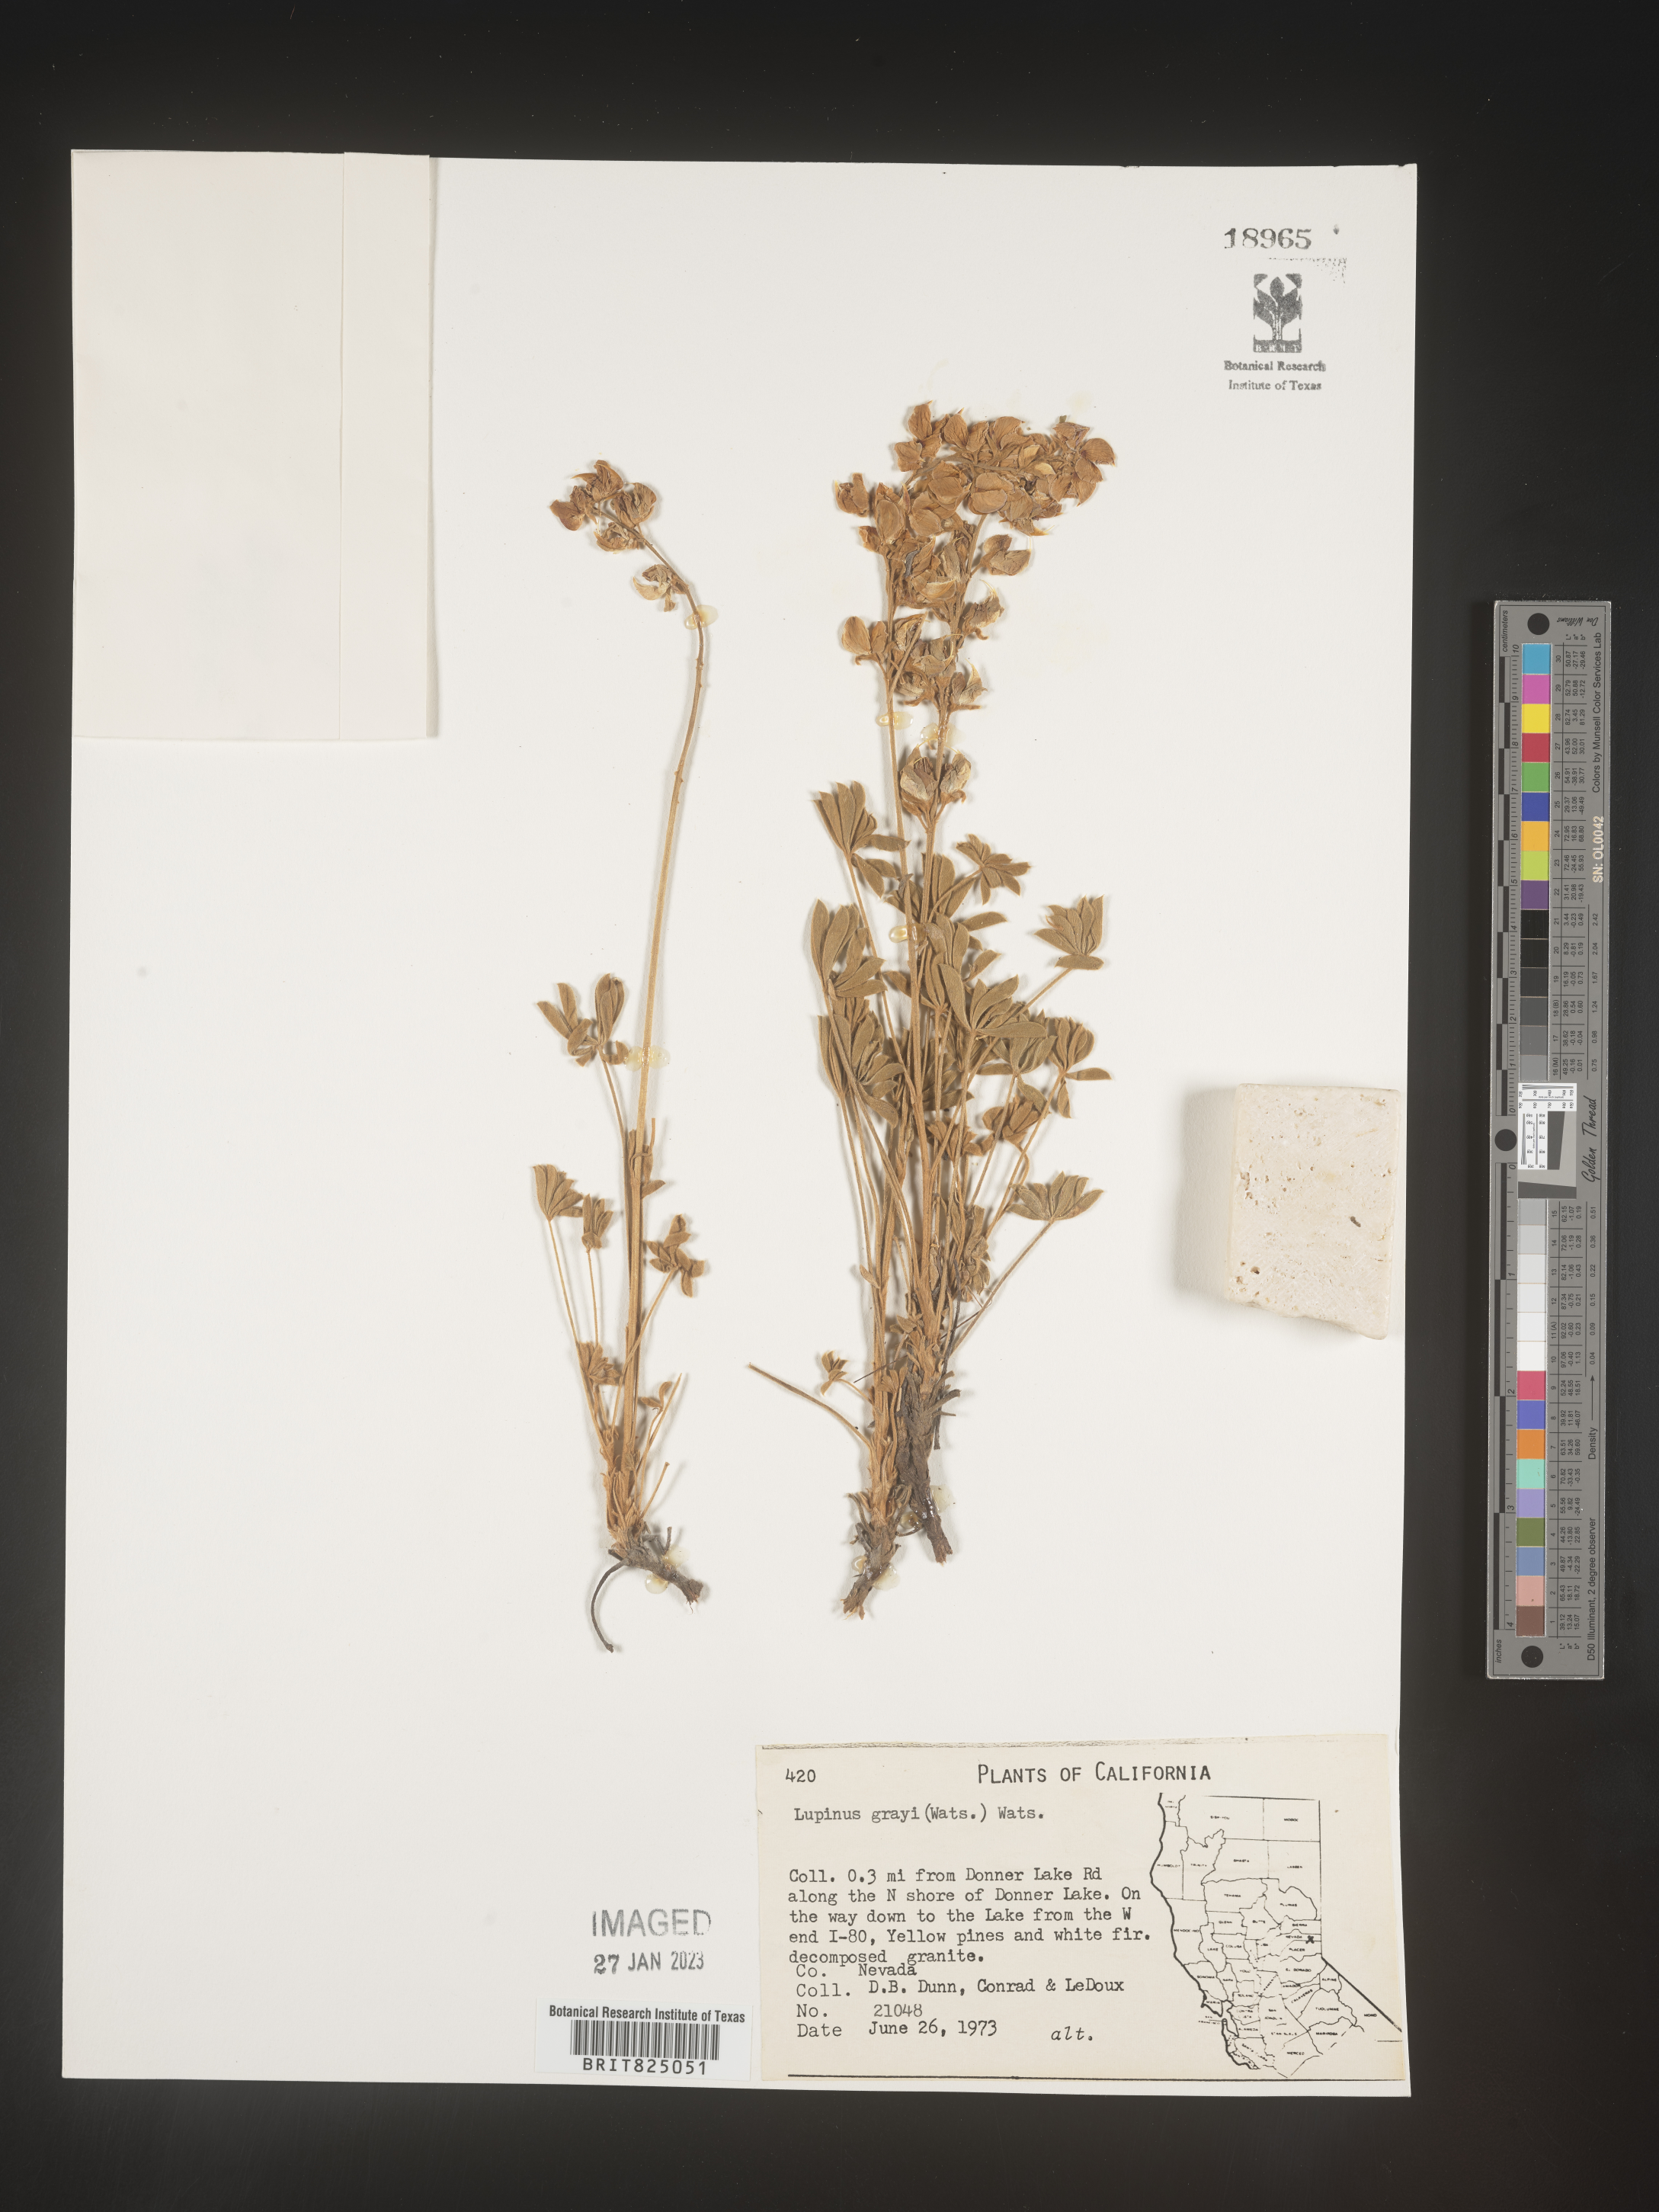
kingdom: Plantae
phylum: Tracheophyta
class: Magnoliopsida
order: Fabales
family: Fabaceae
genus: Lupinus
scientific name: Lupinus
